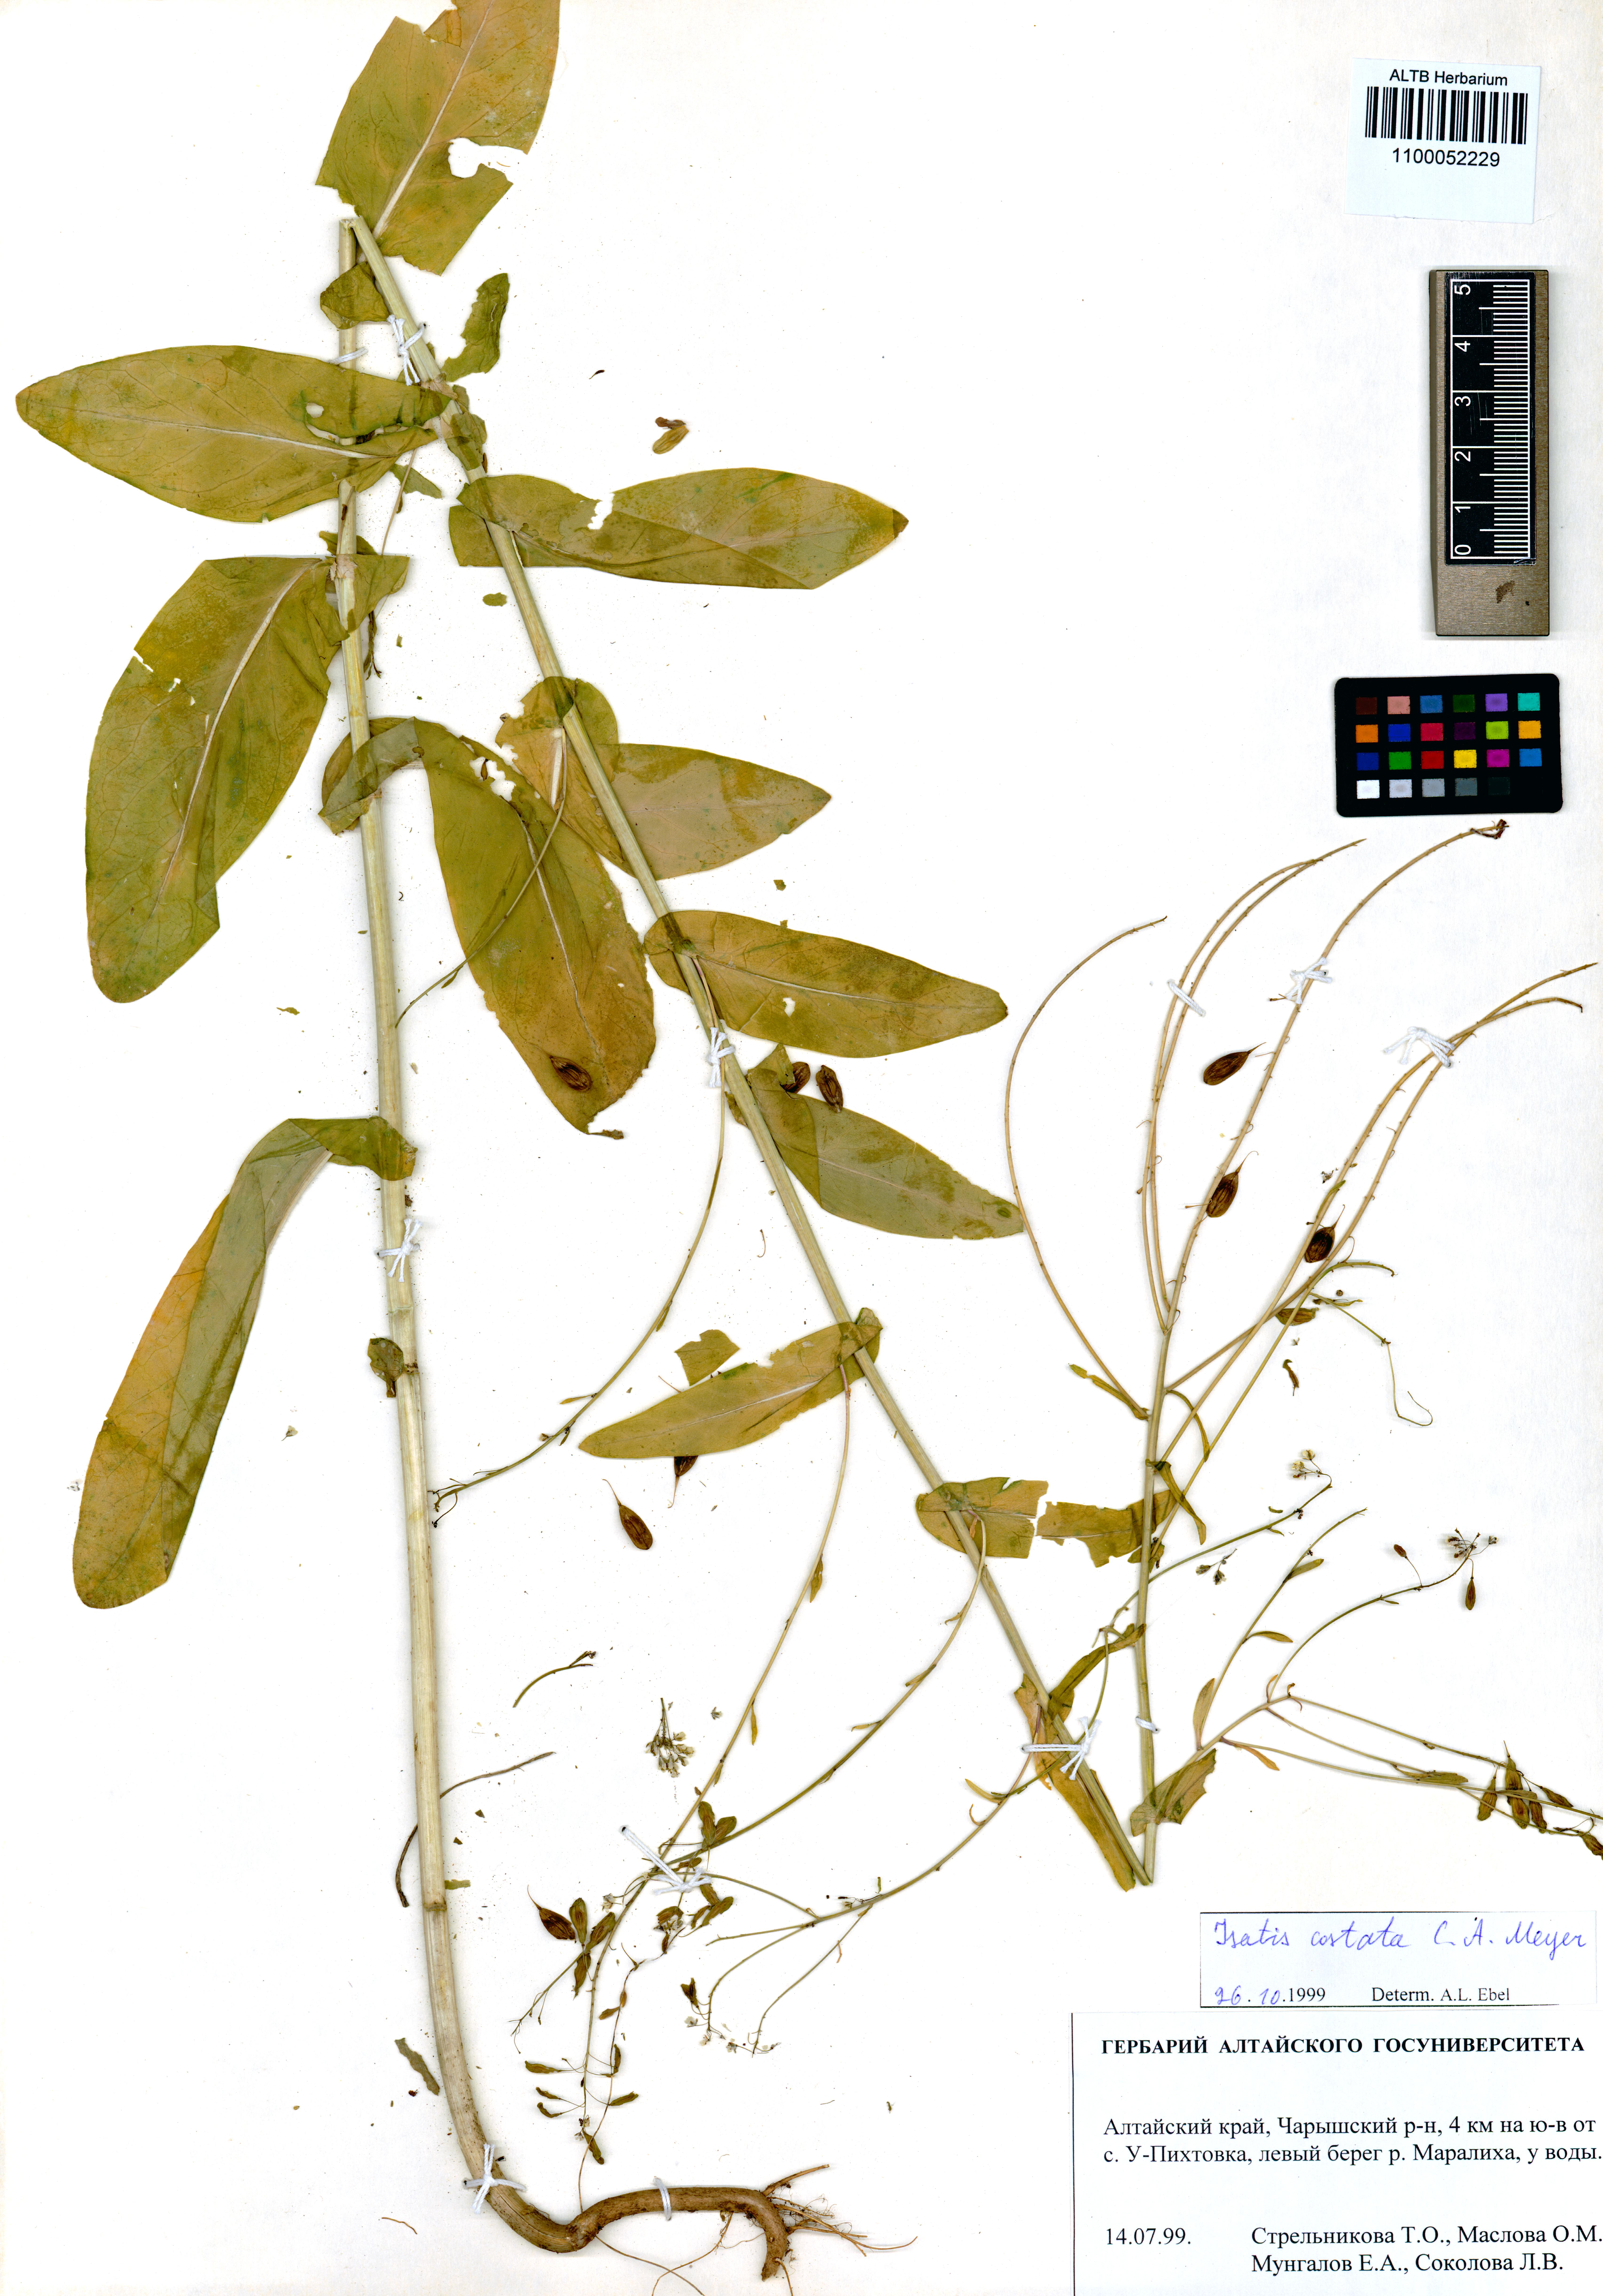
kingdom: Plantae
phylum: Tracheophyta
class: Magnoliopsida
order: Brassicales
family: Brassicaceae
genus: Isatis
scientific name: Isatis costata
